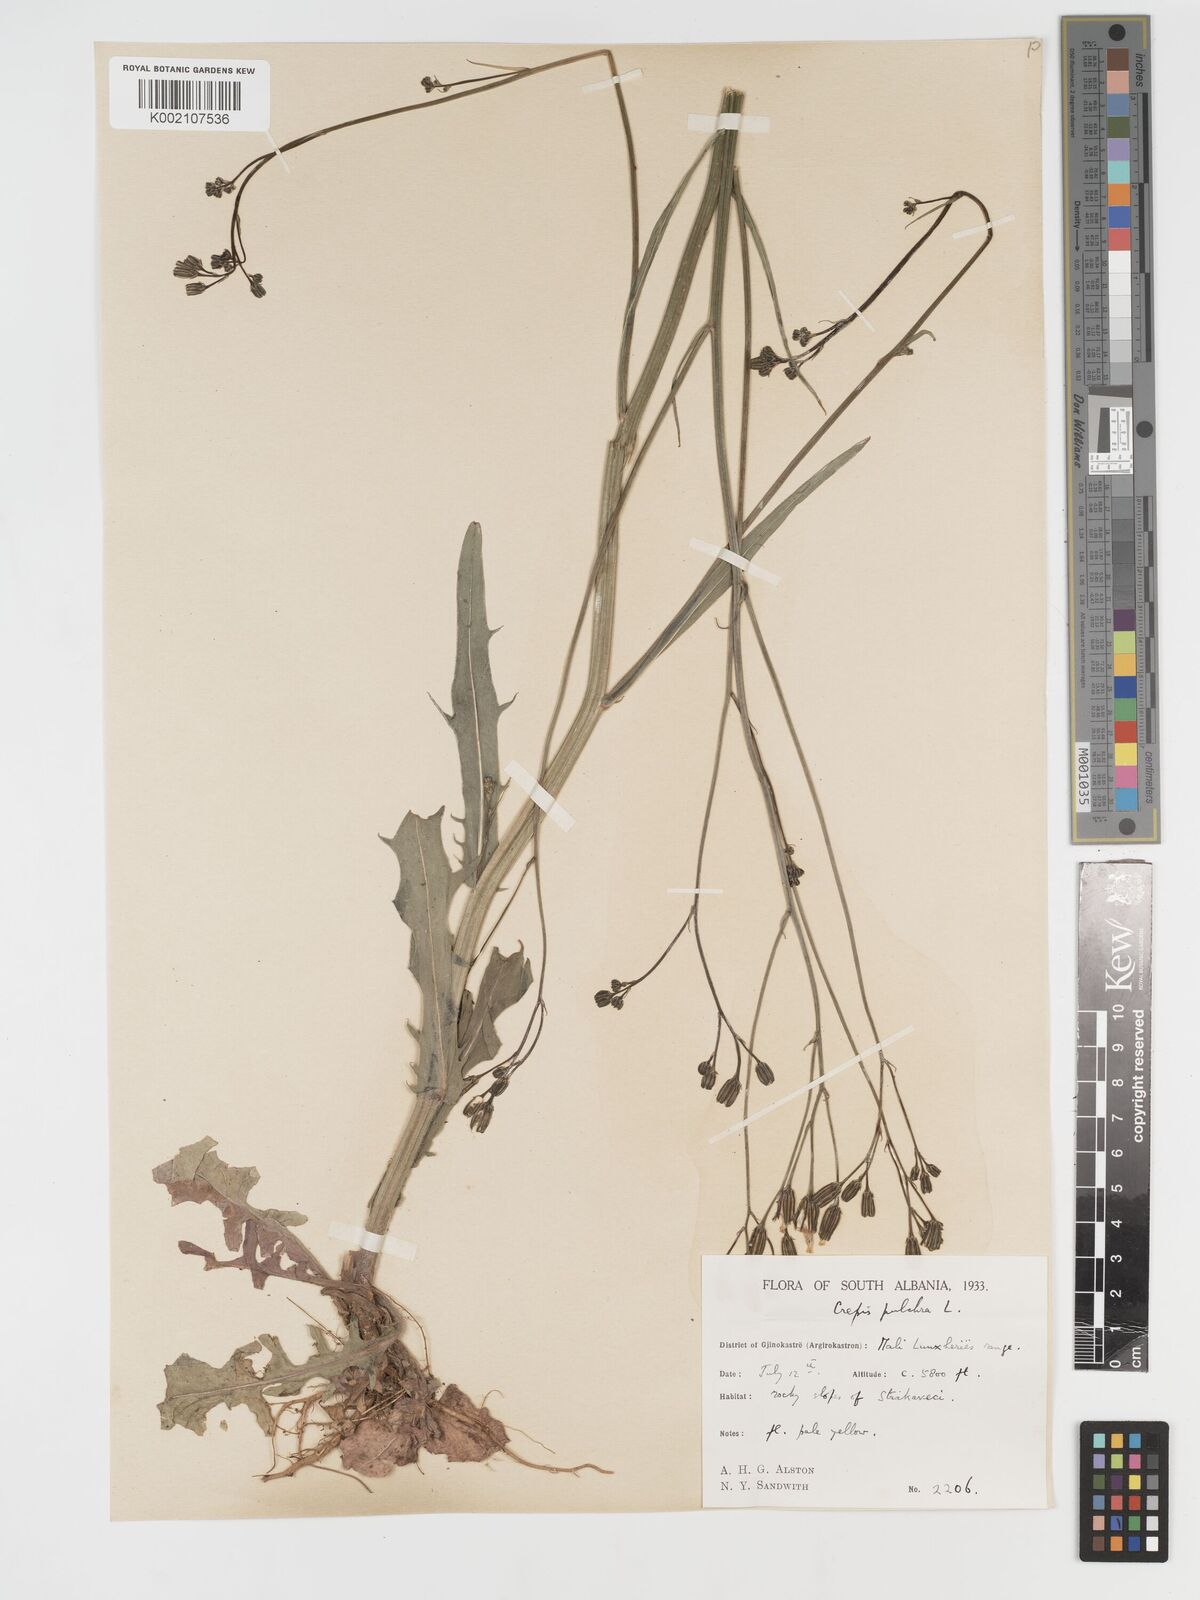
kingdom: Plantae
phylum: Tracheophyta
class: Magnoliopsida
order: Asterales
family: Asteraceae
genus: Crepis
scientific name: Crepis pulchra
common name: Hawk's-beard
